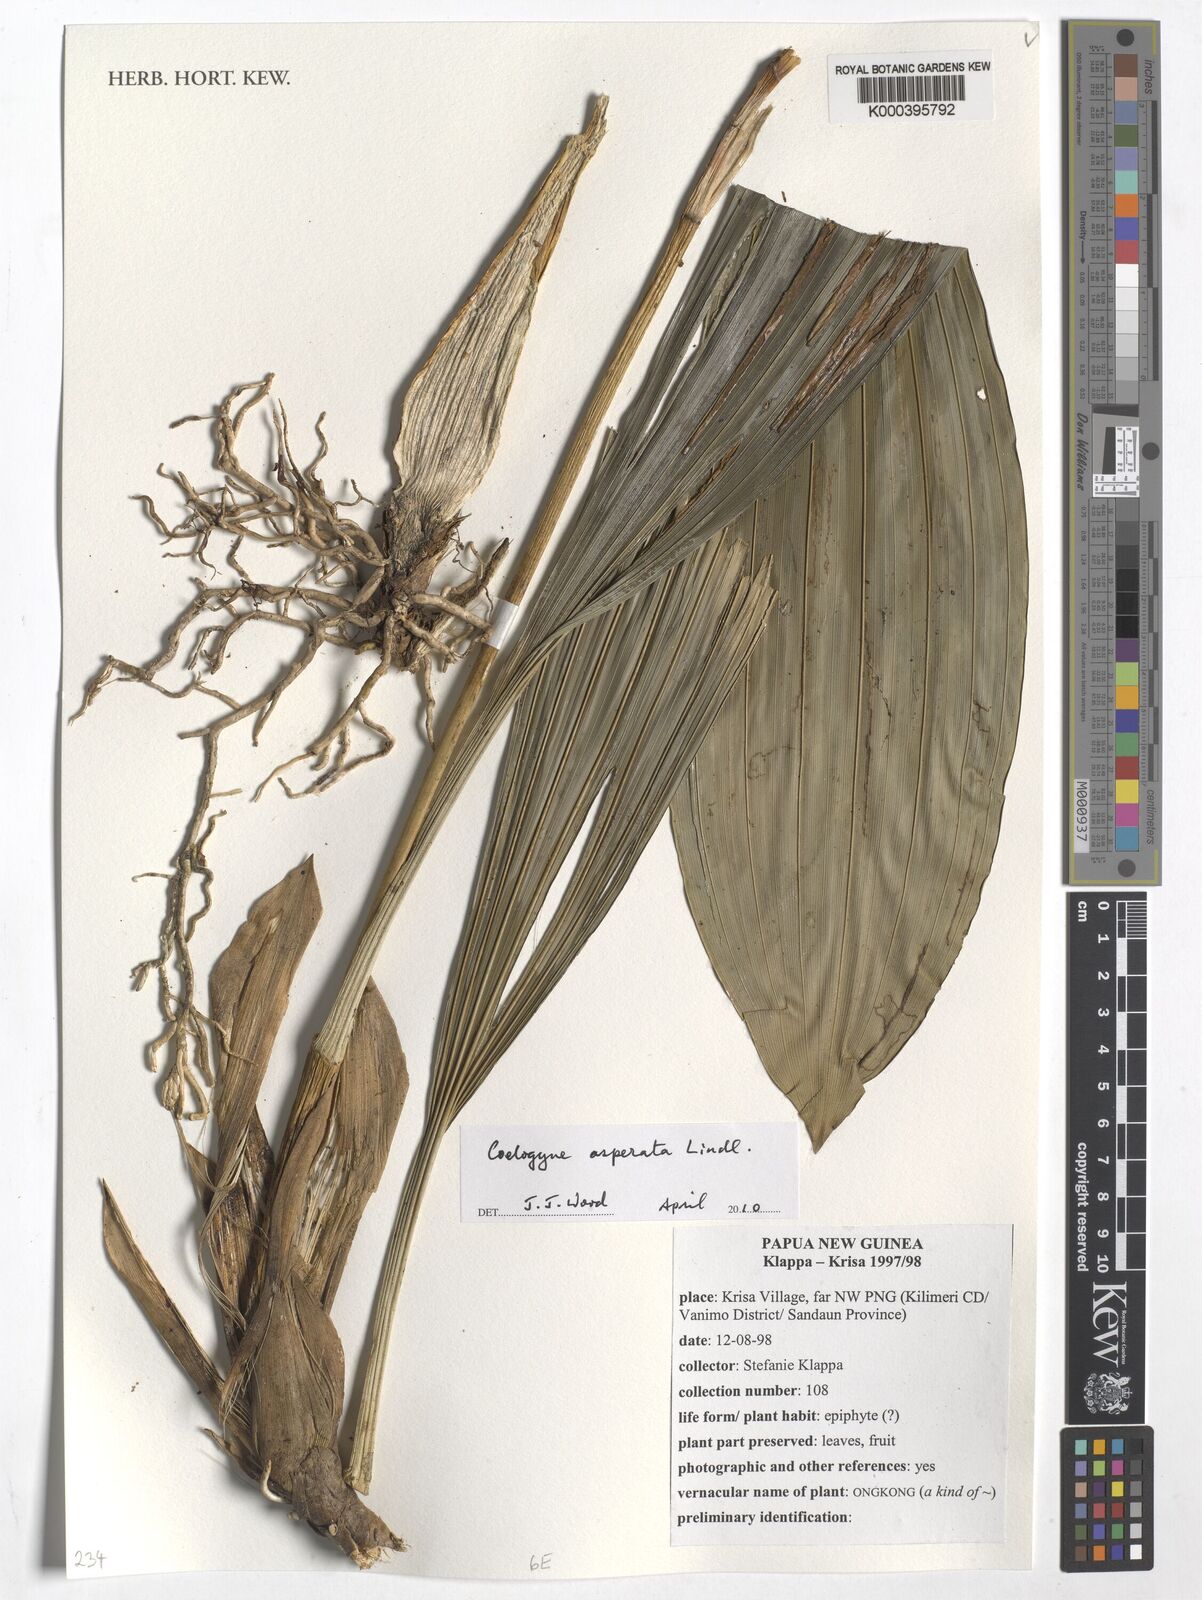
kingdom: Plantae
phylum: Tracheophyta
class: Liliopsida
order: Asparagales
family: Orchidaceae
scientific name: Orchidaceae
